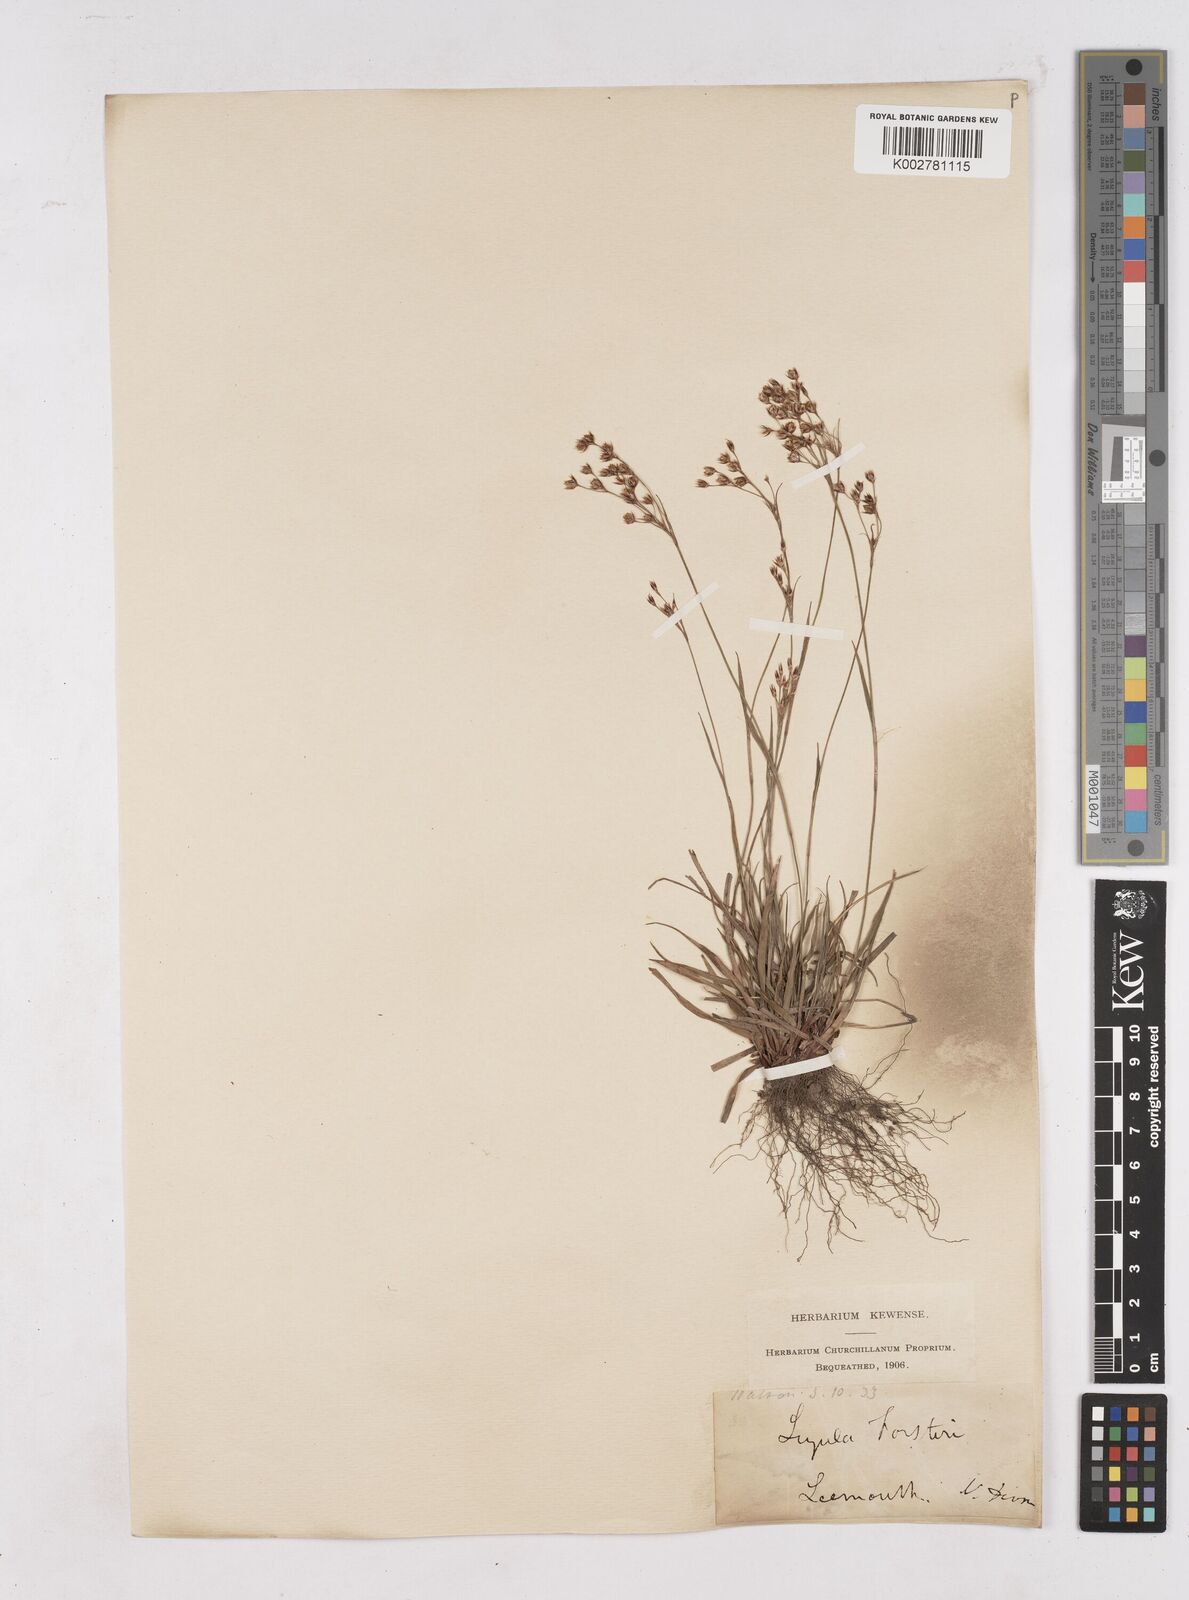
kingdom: Plantae
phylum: Tracheophyta
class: Liliopsida
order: Poales
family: Juncaceae
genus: Luzula
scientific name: Luzula forsteri
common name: Southern wood-rush
